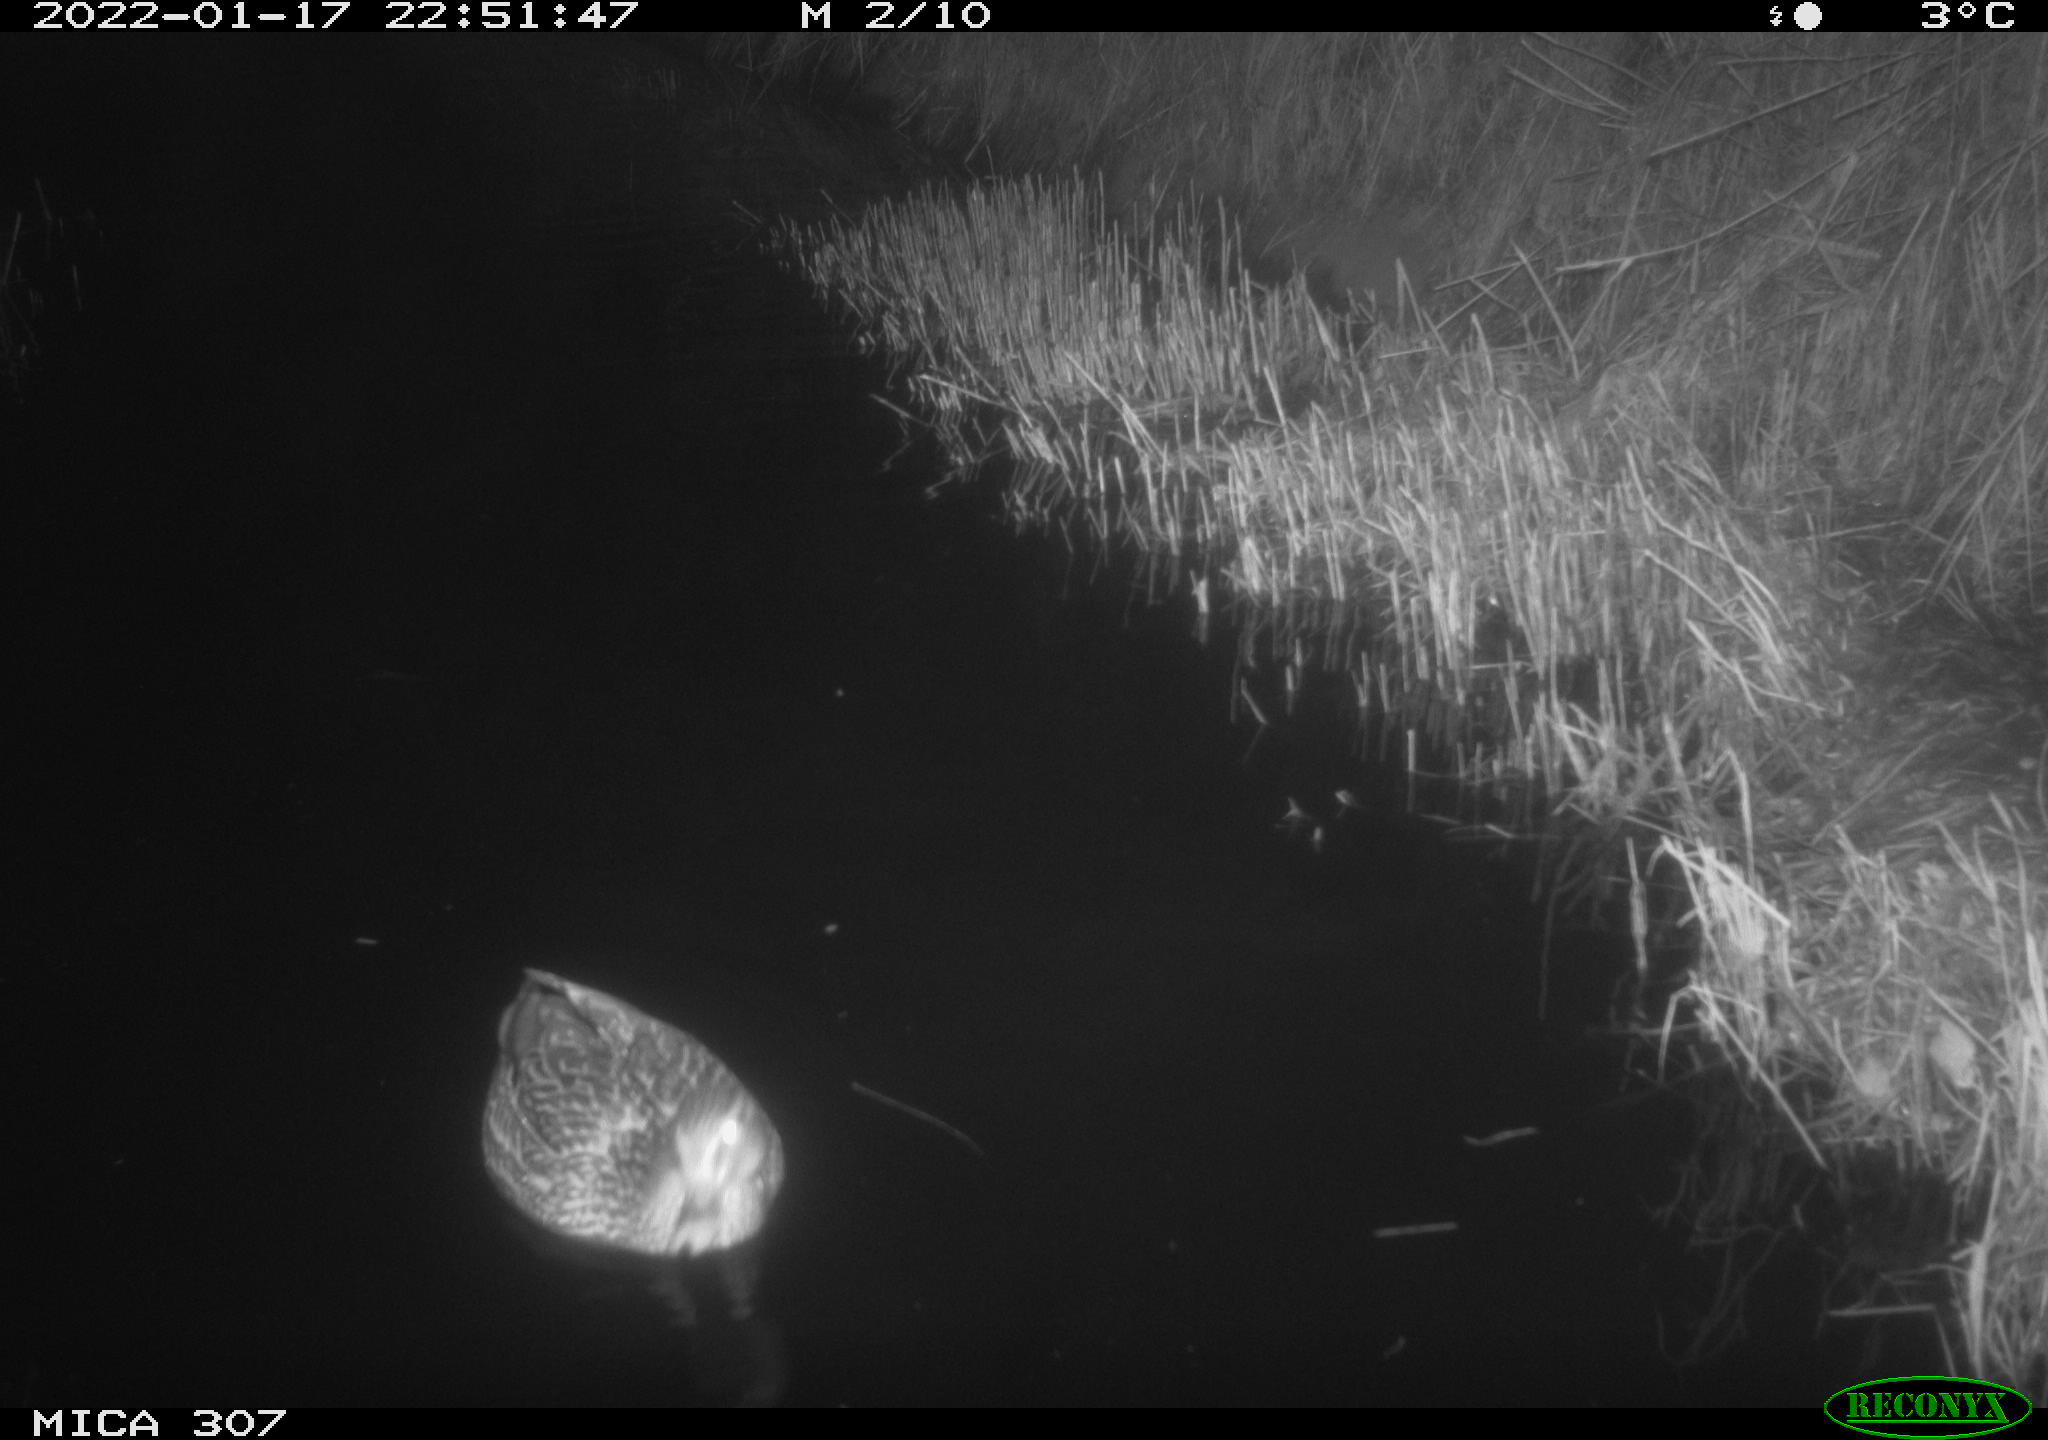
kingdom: Animalia
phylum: Chordata
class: Aves
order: Anseriformes
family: Anatidae
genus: Anas
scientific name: Anas platyrhynchos
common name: Mallard
